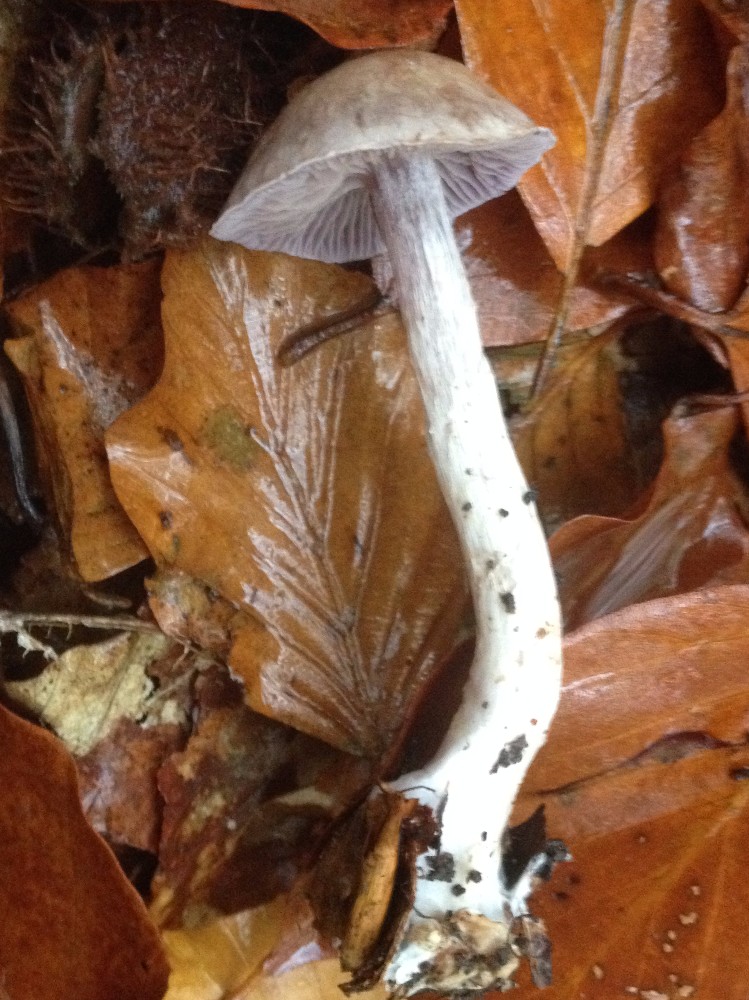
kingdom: Fungi
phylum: Basidiomycota
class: Agaricomycetes
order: Agaricales
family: Cortinariaceae
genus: Cortinarius
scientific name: Cortinarius anomalus
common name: Variable webcap
